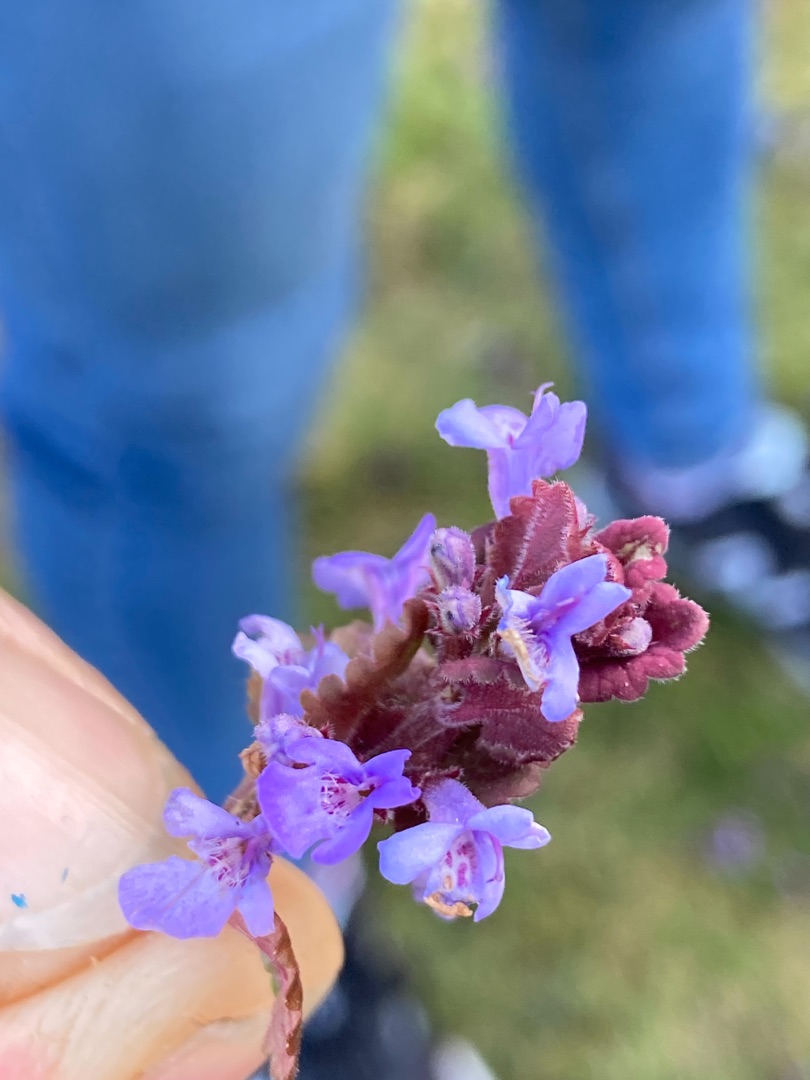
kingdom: Plantae
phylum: Tracheophyta
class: Magnoliopsida
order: Lamiales
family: Lamiaceae
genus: Glechoma
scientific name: Glechoma hederacea
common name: Korsknap
